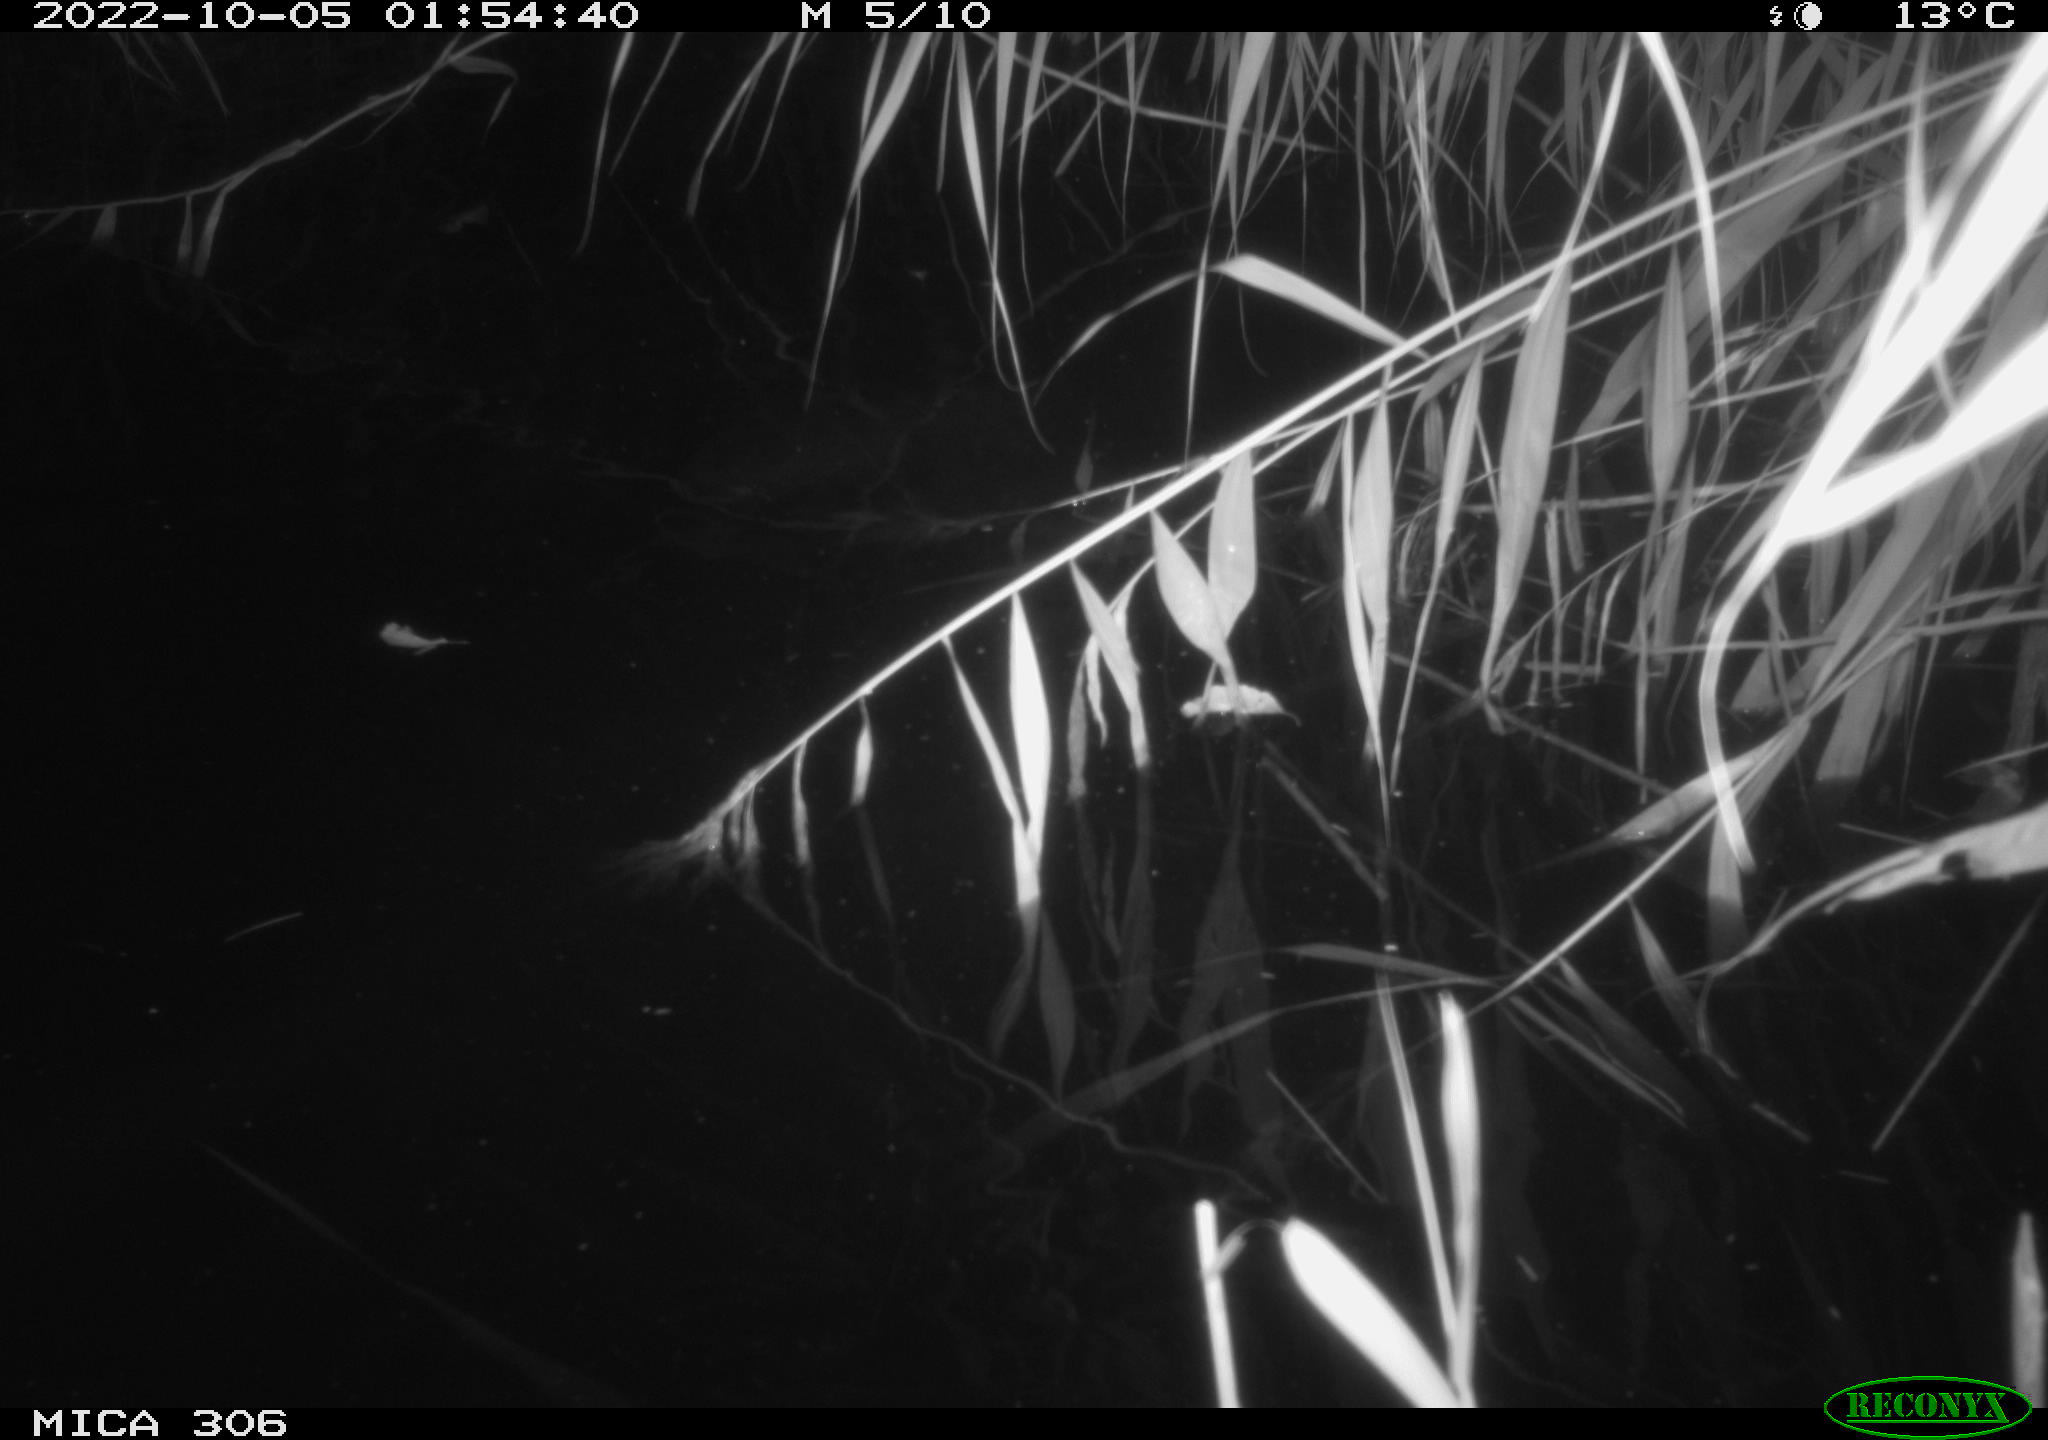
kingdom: Animalia
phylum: Chordata
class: Mammalia
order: Rodentia
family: Muridae
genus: Rattus
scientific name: Rattus norvegicus
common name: Brown rat
